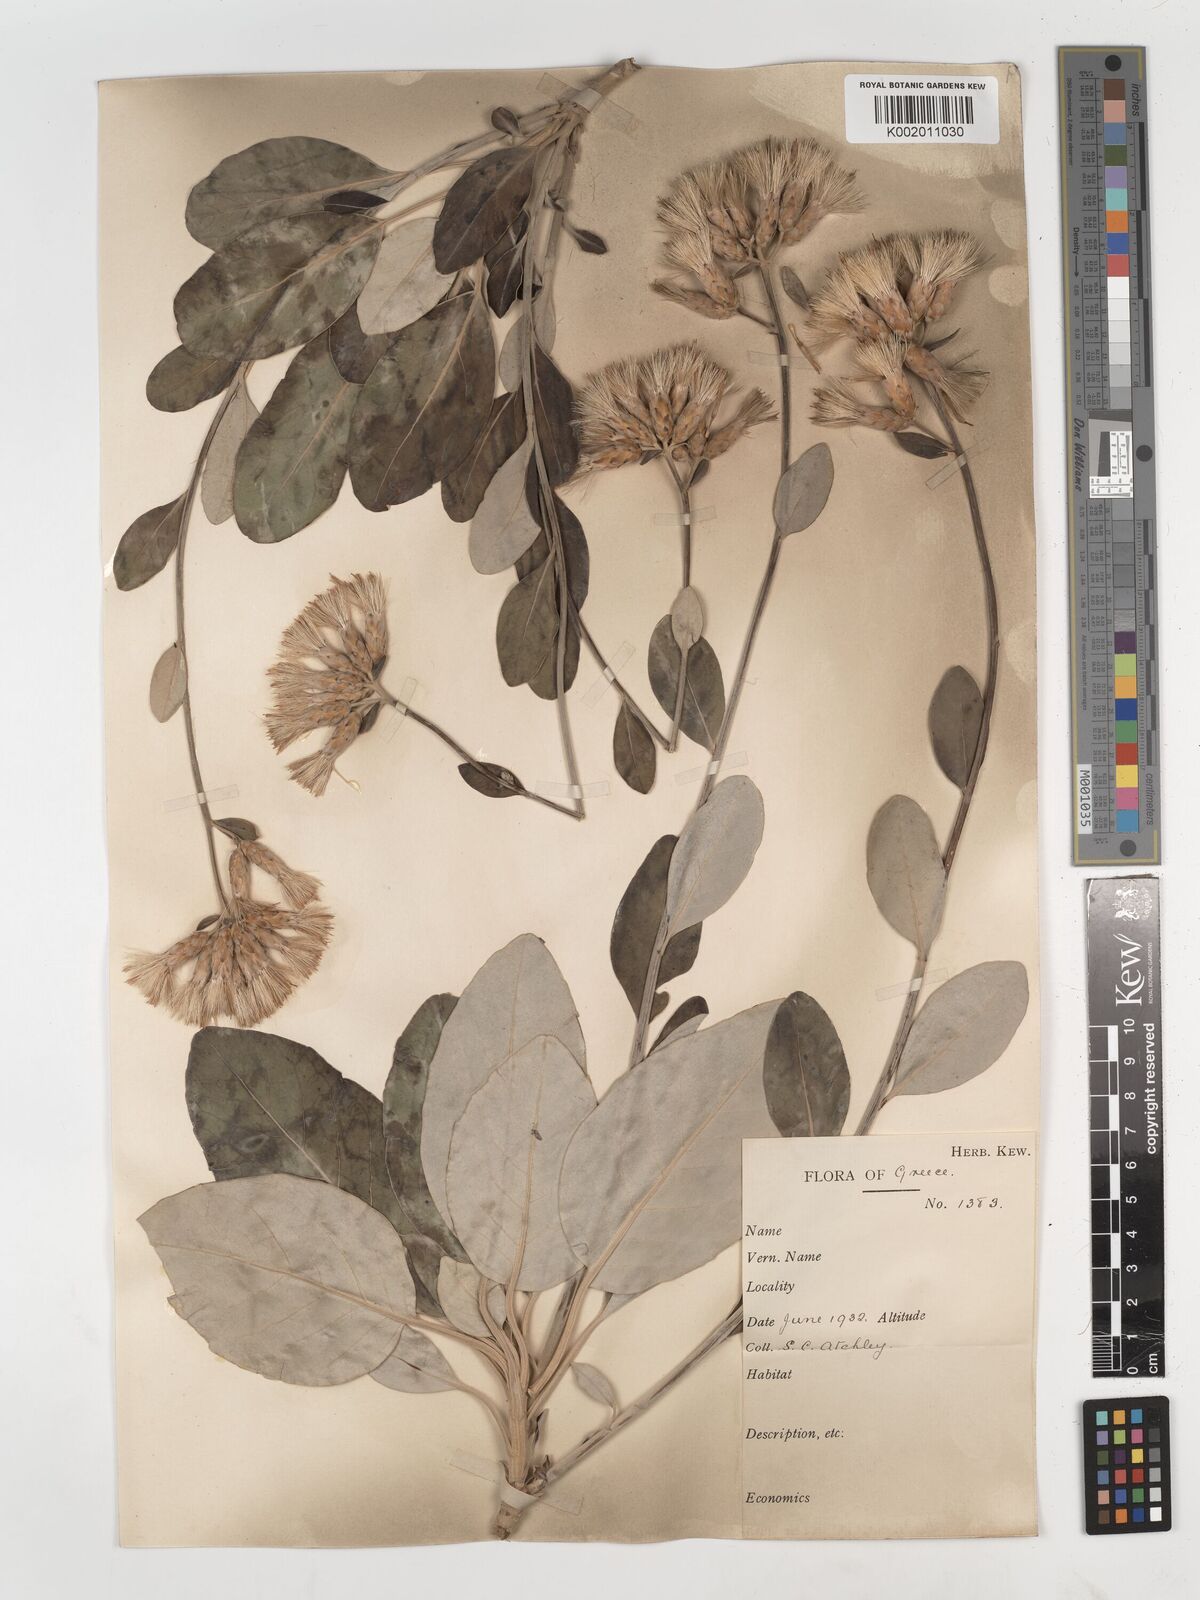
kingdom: Plantae
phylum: Tracheophyta
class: Magnoliopsida
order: Asterales
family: Asteraceae
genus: Staehelina
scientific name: Staehelina petiolata
